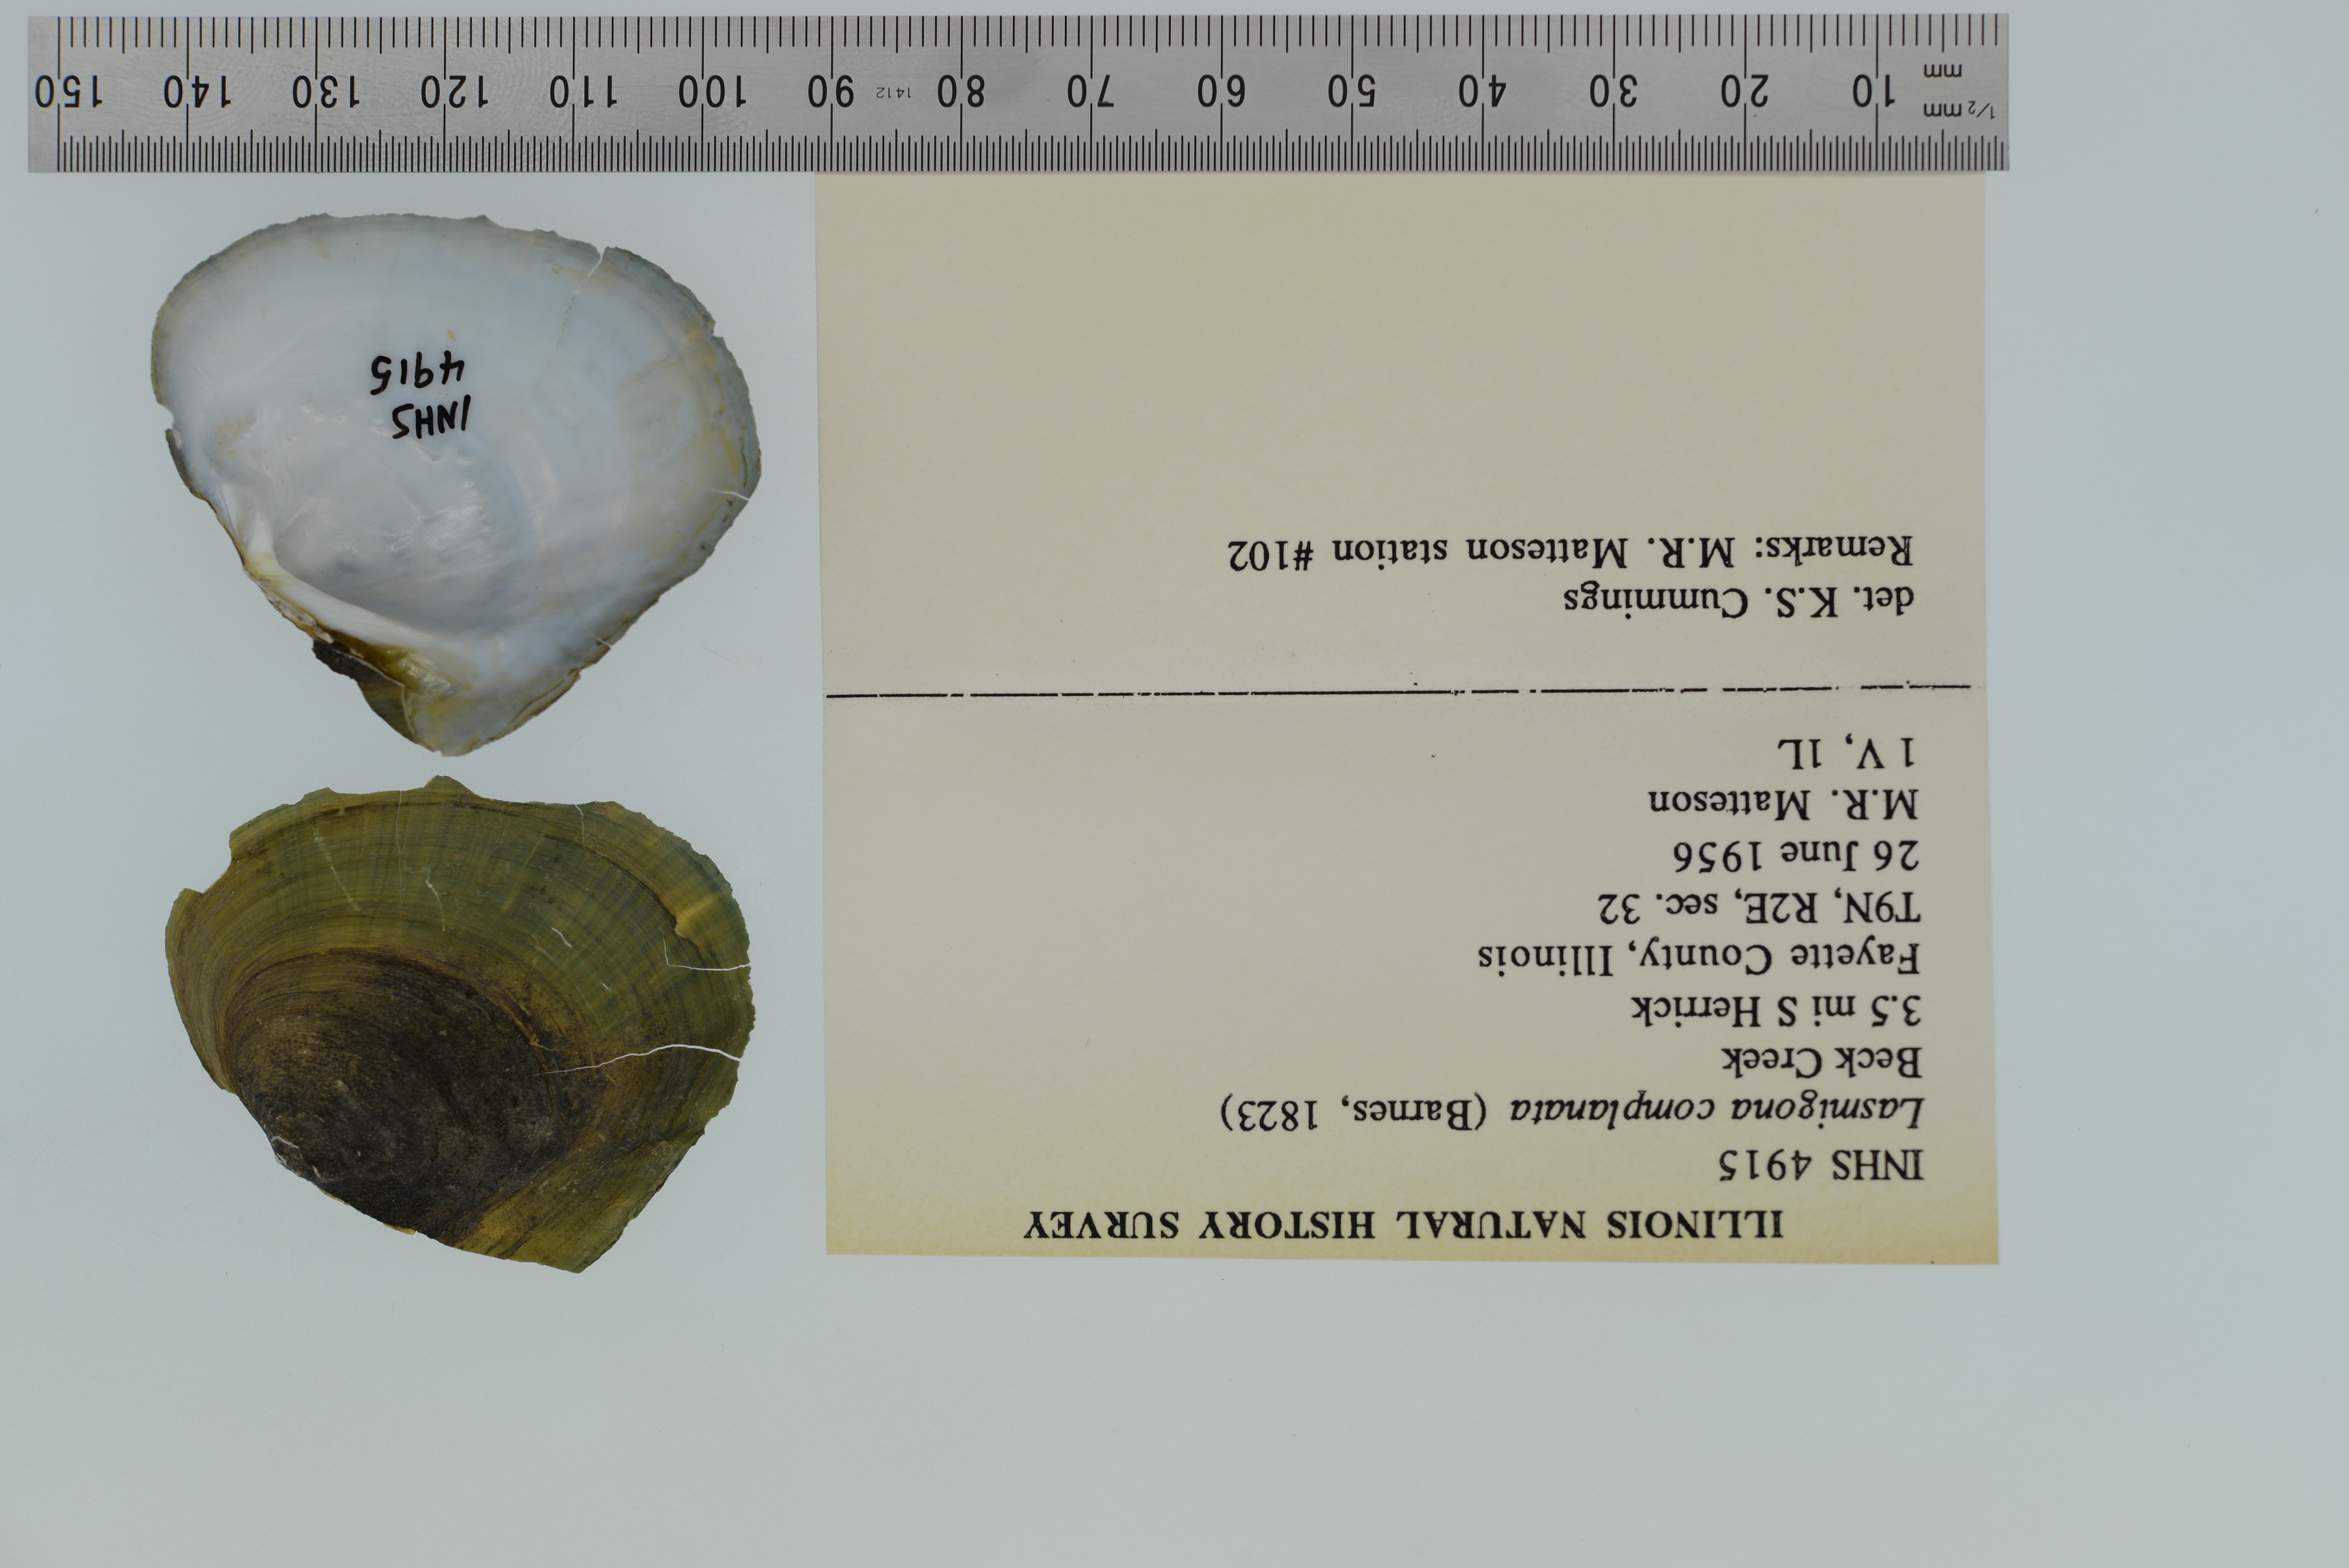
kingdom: Animalia
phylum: Mollusca
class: Bivalvia
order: Unionida
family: Unionidae
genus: Lasmigona
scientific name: Lasmigona complanata
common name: White heelsplitter
